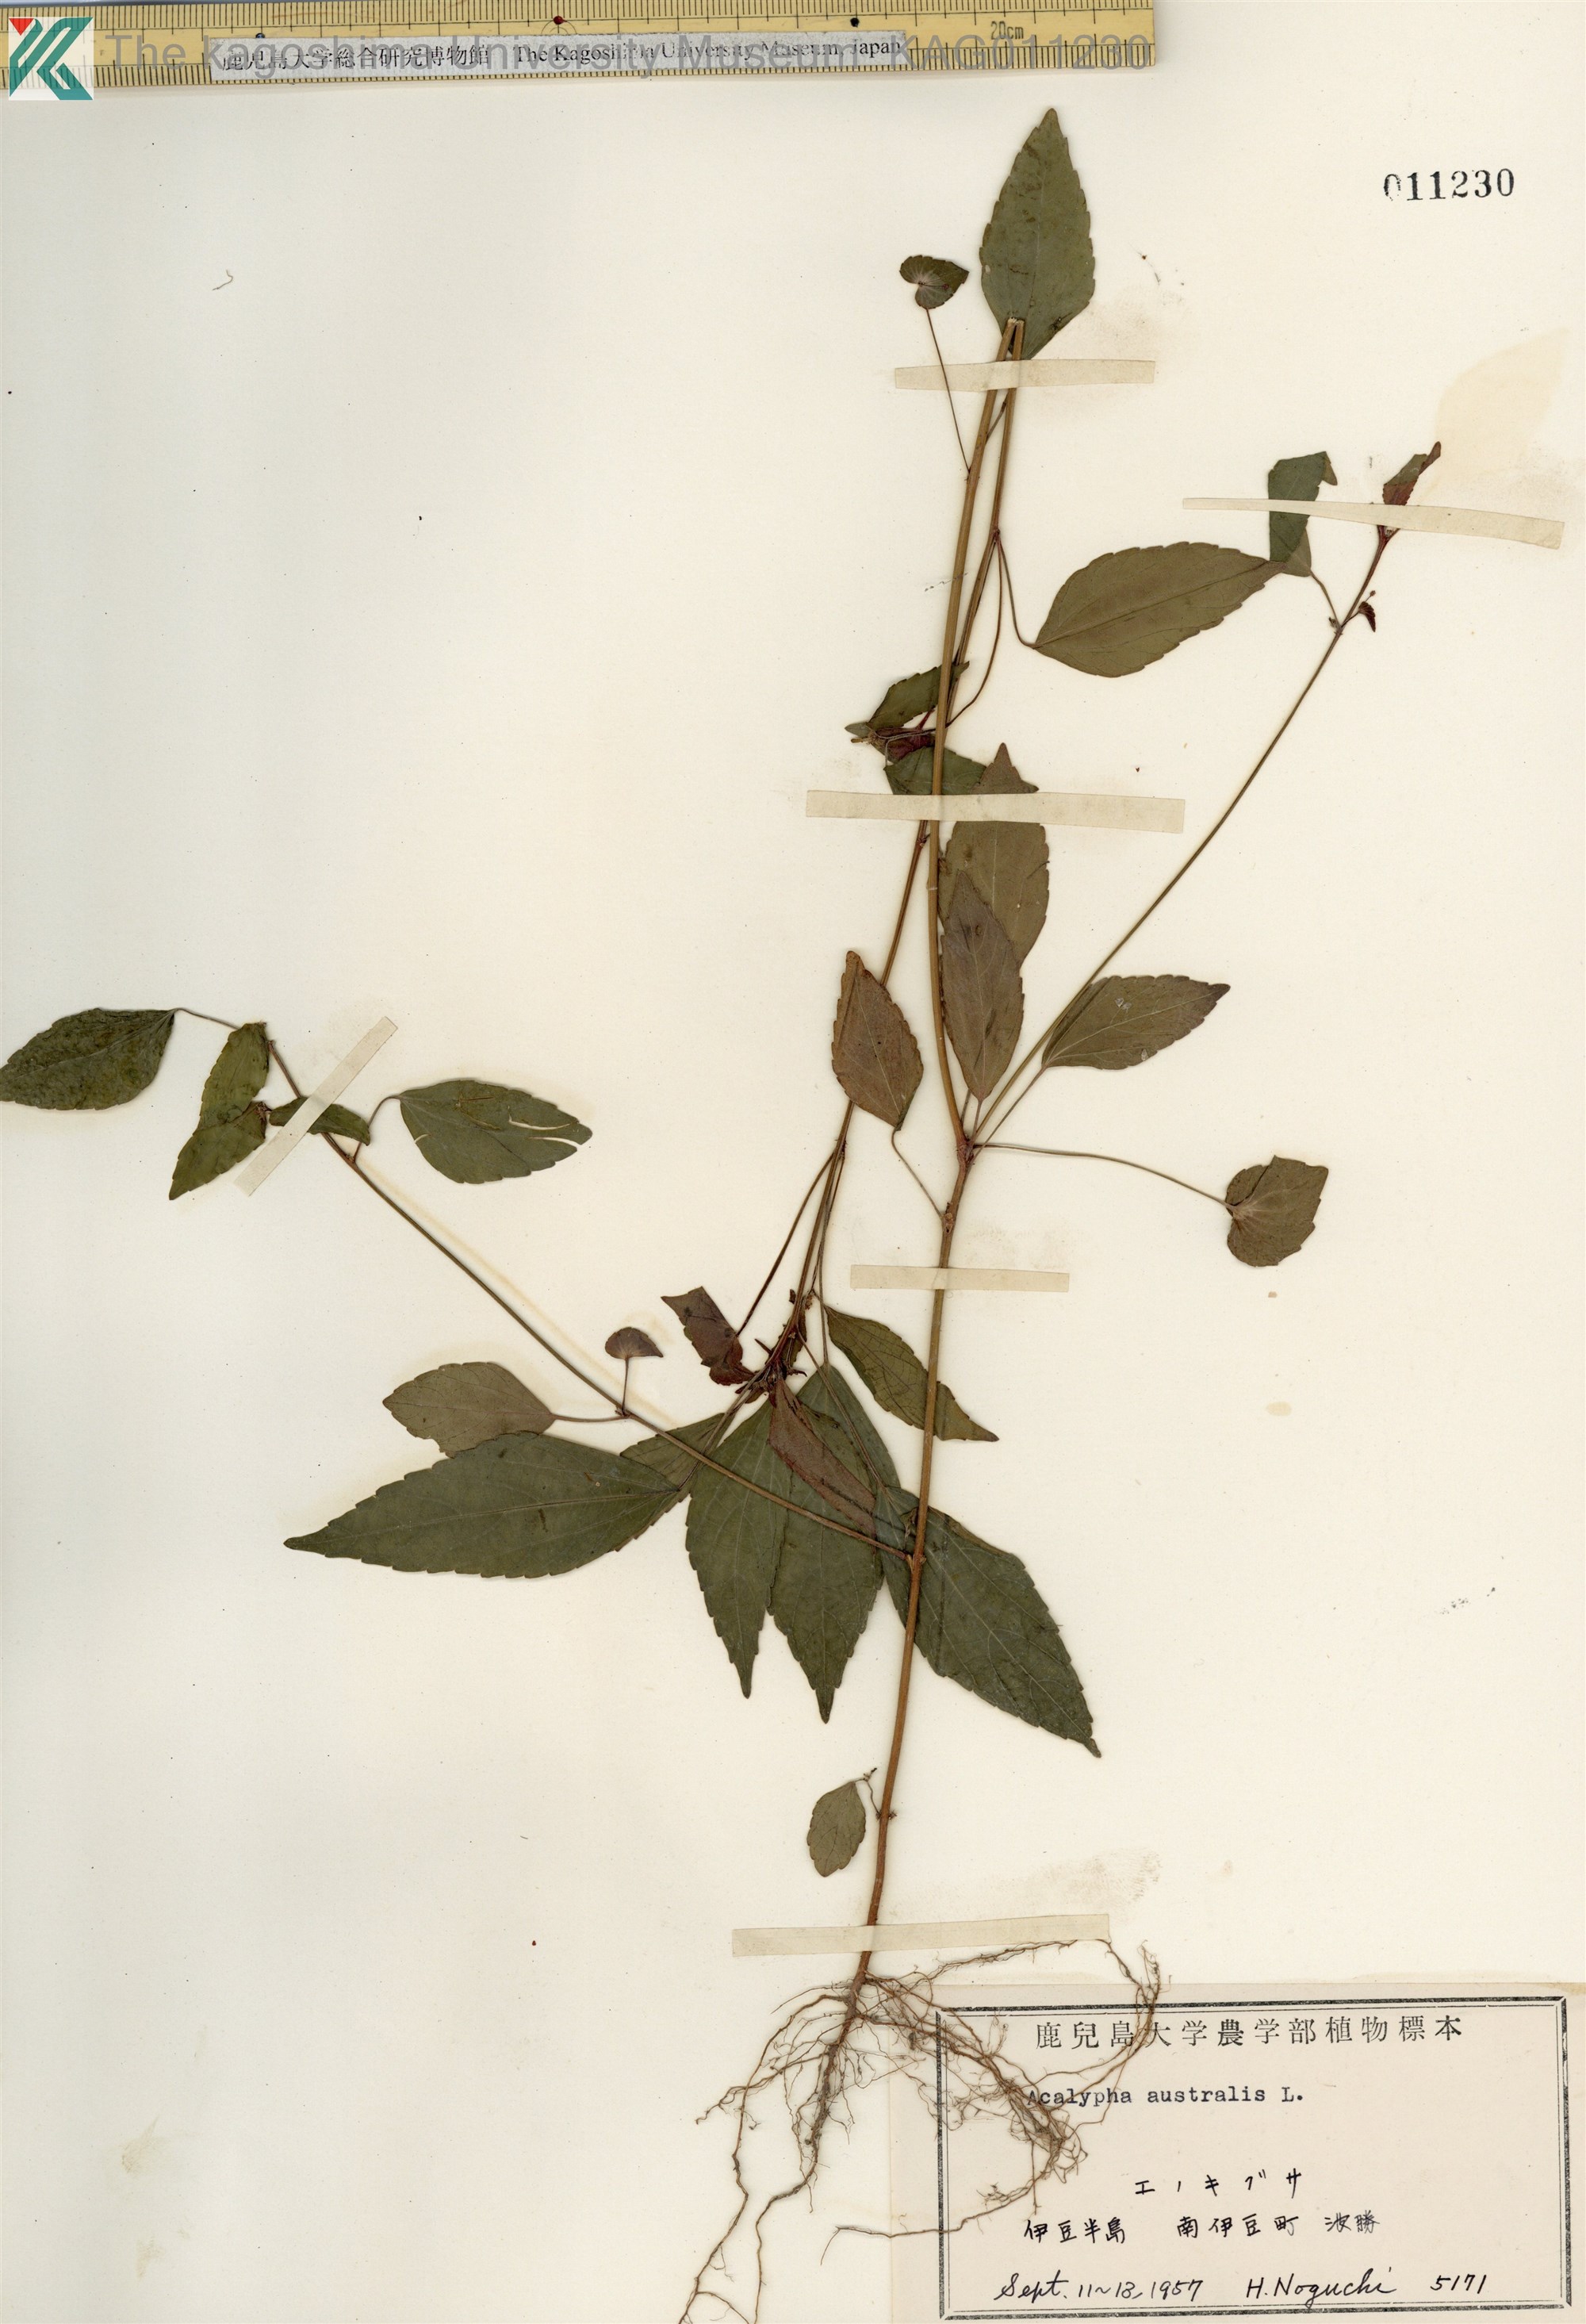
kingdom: Plantae
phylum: Tracheophyta
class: Magnoliopsida
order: Malpighiales
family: Euphorbiaceae
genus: Acalypha
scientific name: Acalypha australis
